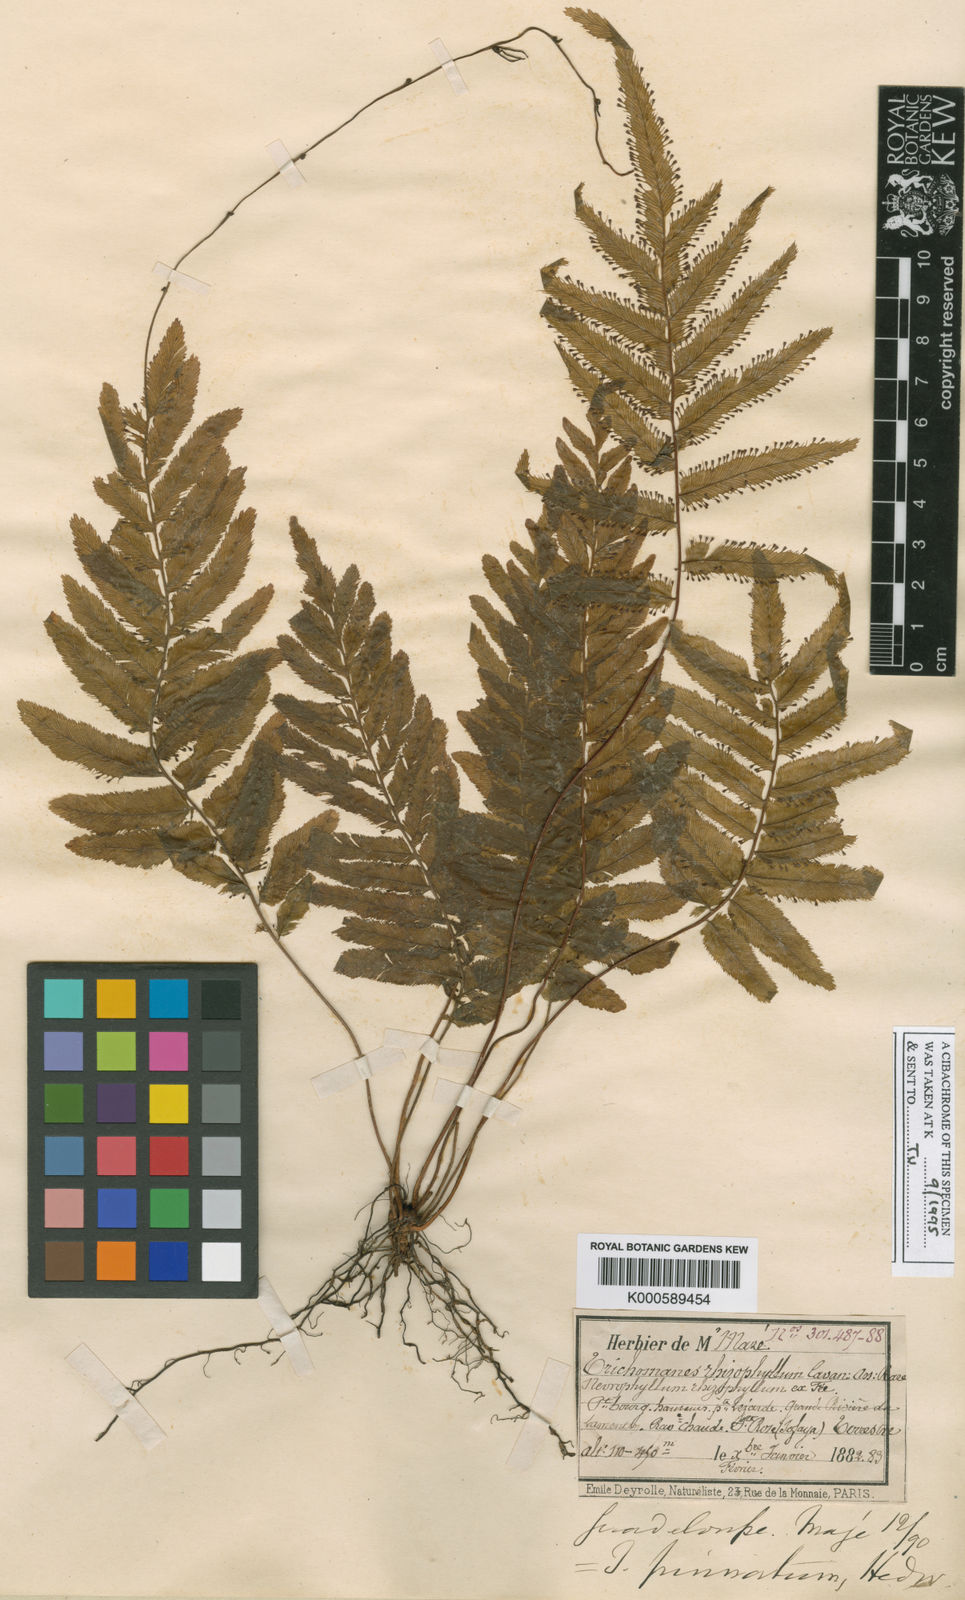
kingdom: Plantae
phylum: Tracheophyta
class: Polypodiopsida
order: Hymenophyllales
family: Hymenophyllaceae
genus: Trichomanes
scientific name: Trichomanes pinnatum
